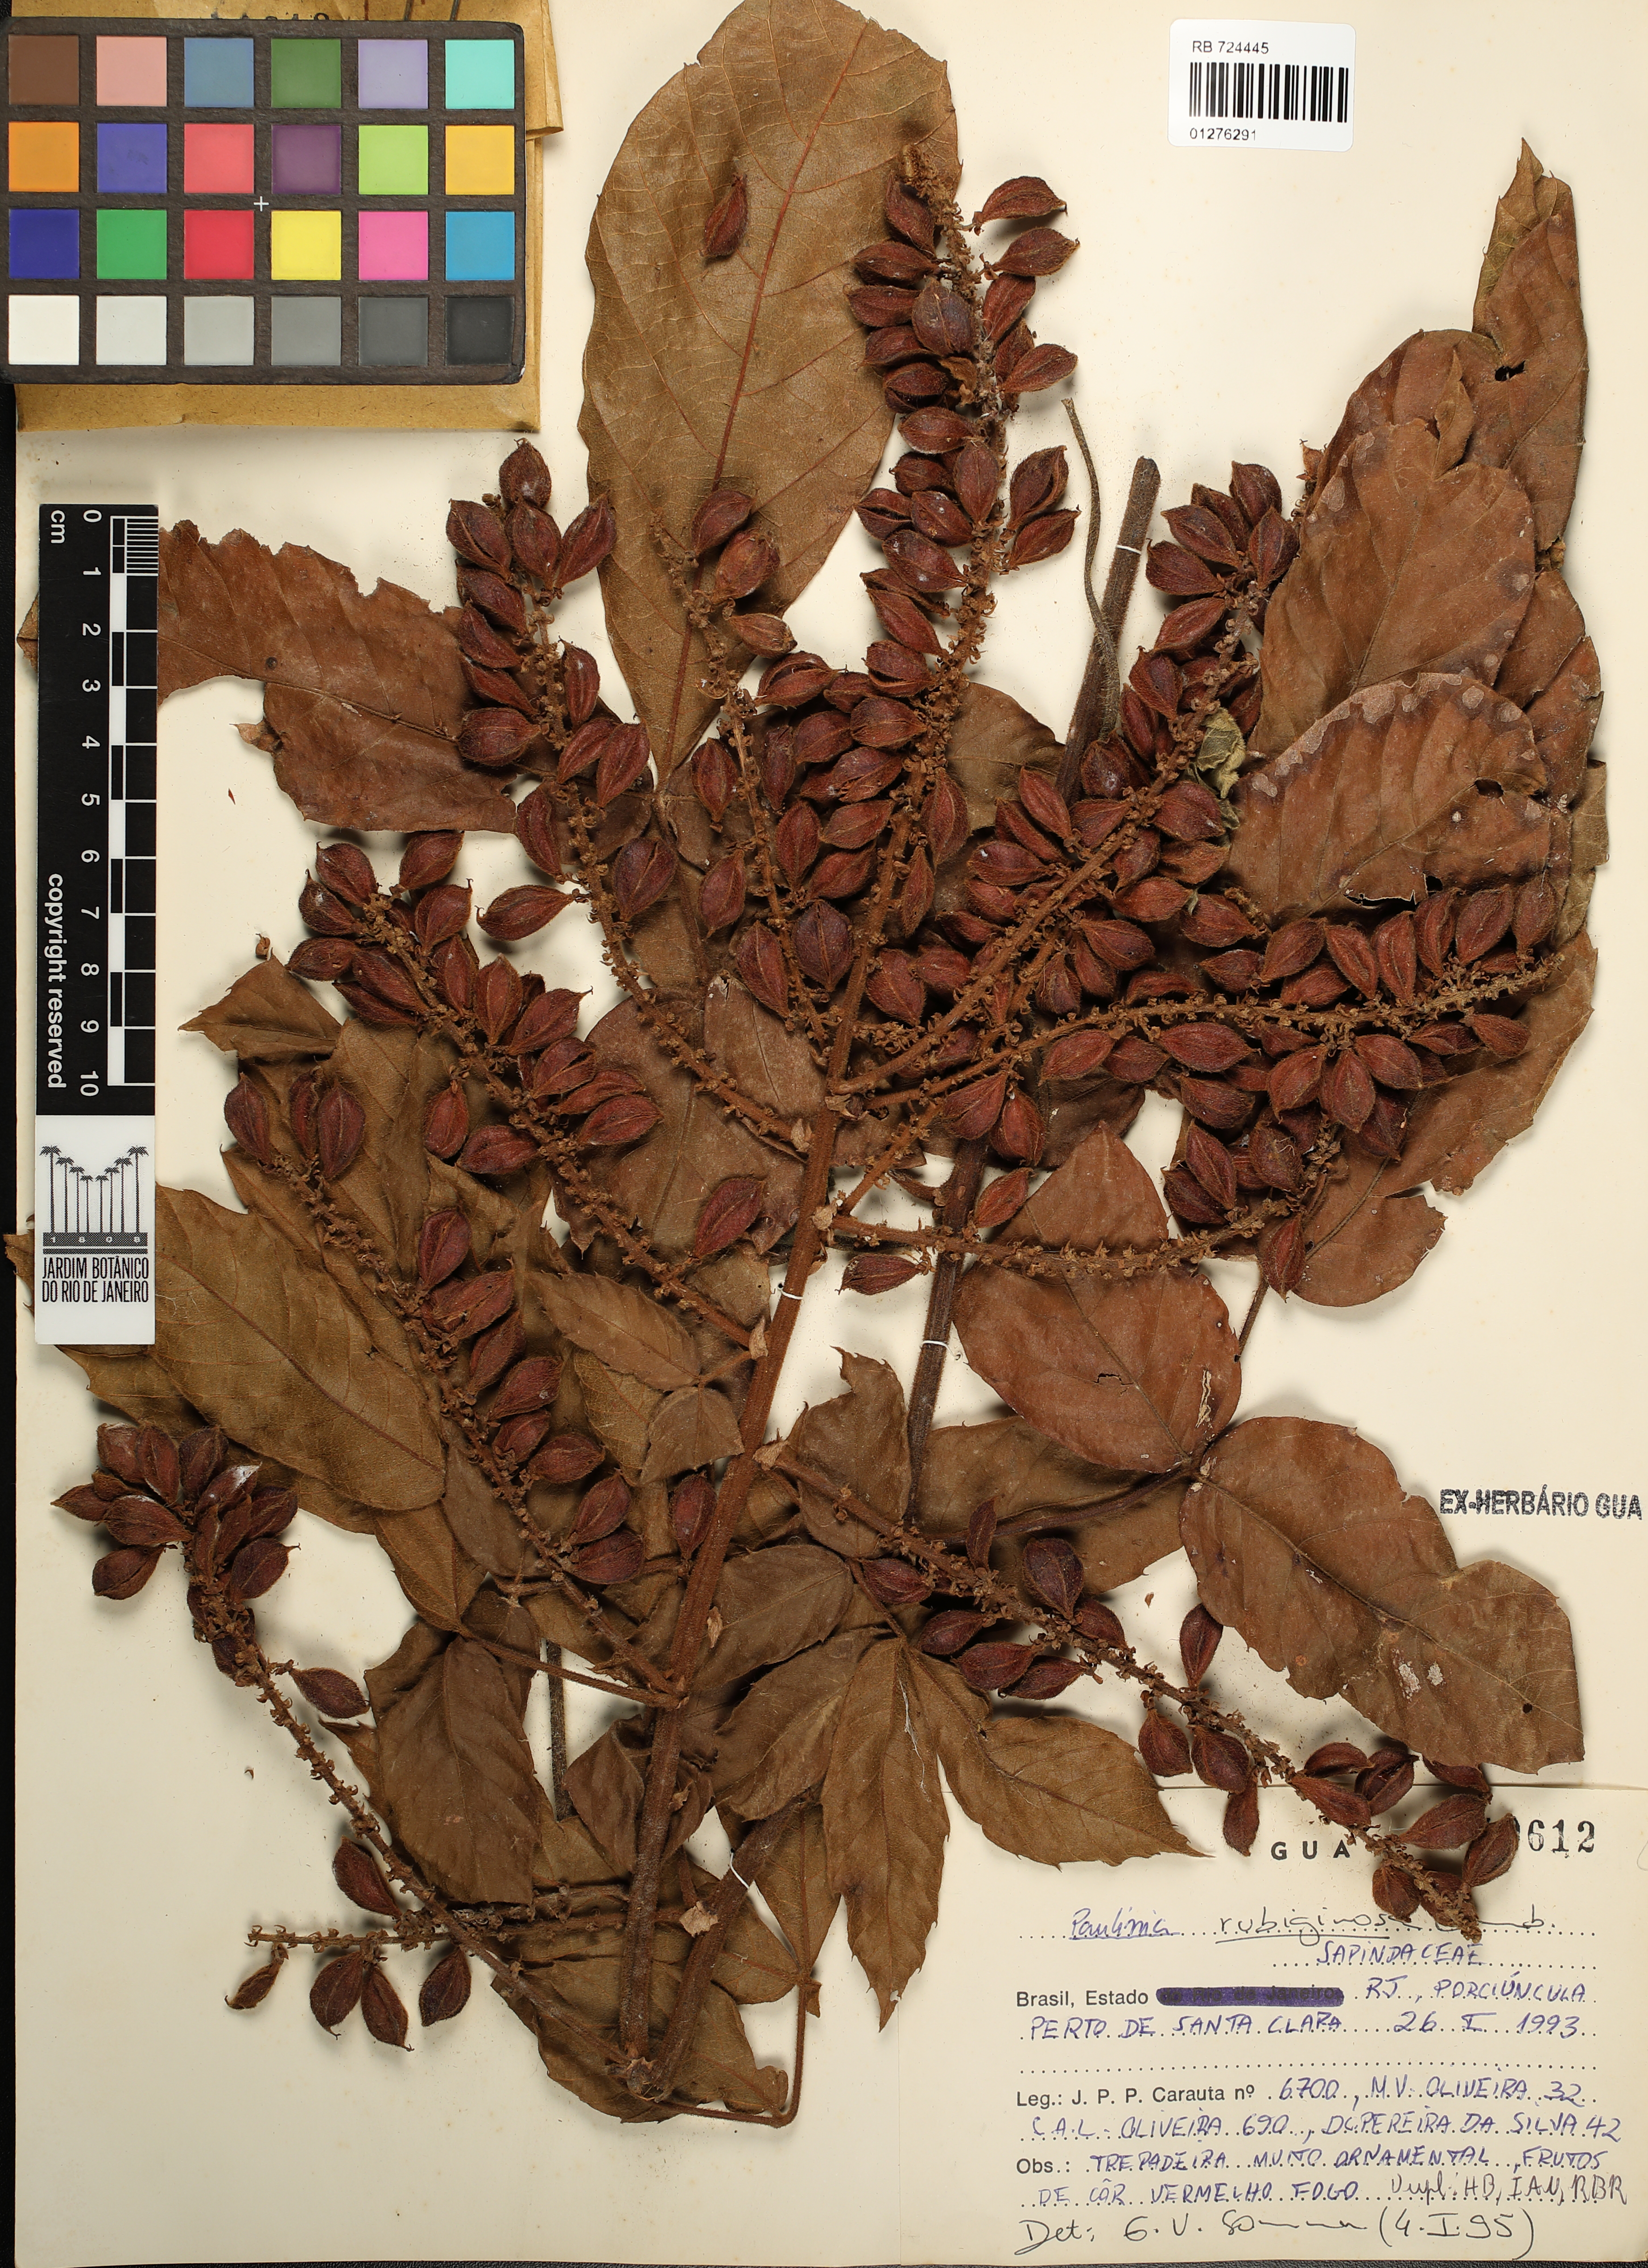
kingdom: Plantae
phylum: Tracheophyta
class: Magnoliopsida
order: Sapindales
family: Sapindaceae
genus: Paullinia
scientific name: Paullinia rubiginosa
